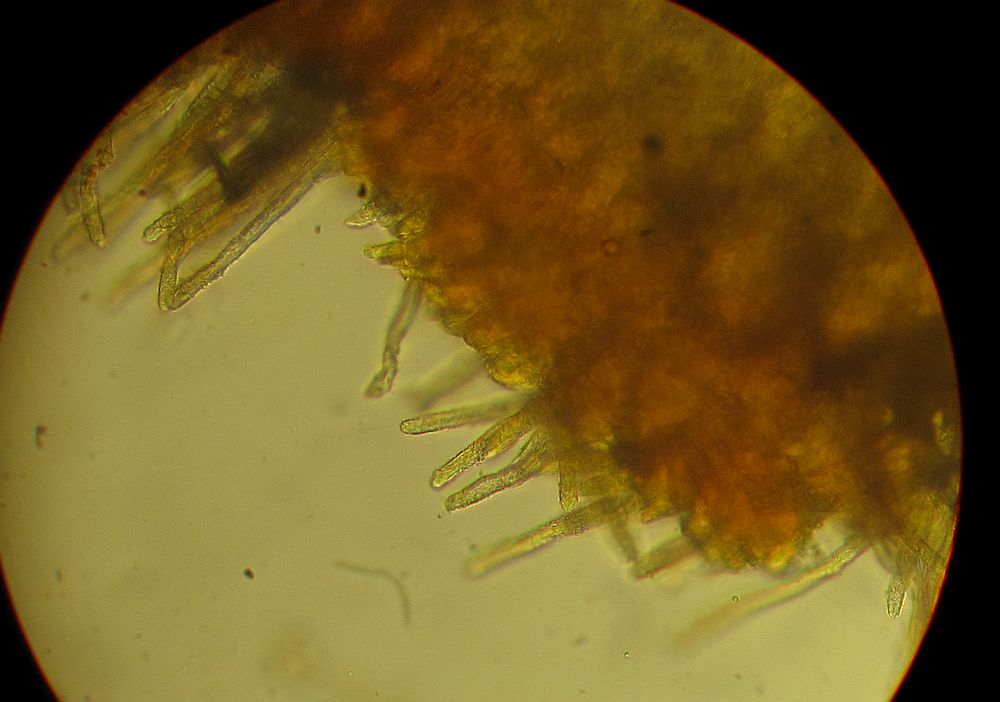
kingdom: Fungi
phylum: Basidiomycota
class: Agaricomycetes
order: Agaricales
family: Niaceae
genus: Lachnella
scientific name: Lachnella villosa
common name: hvid frynserede
